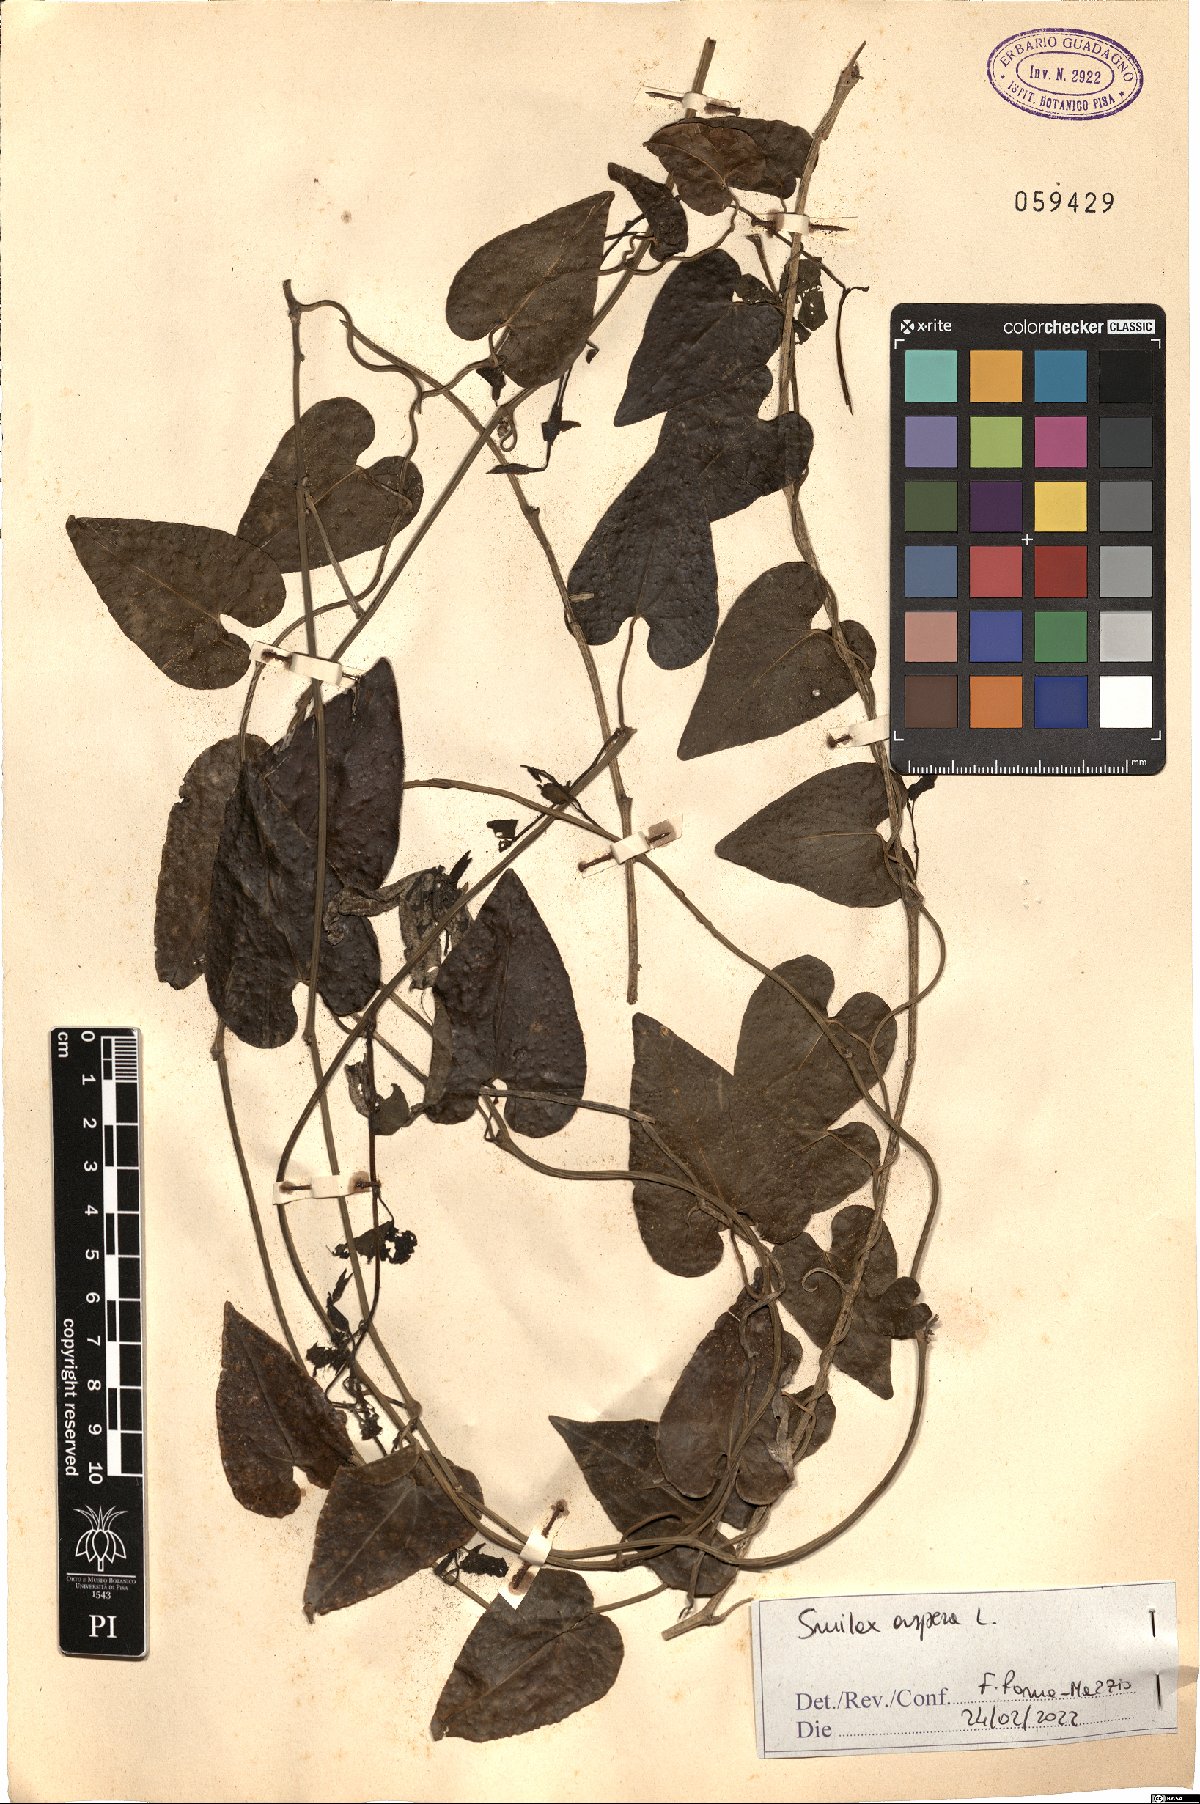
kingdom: Plantae
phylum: Tracheophyta
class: Liliopsida
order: Liliales
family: Smilacaceae
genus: Smilax
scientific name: Smilax aspera
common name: Common smilax
